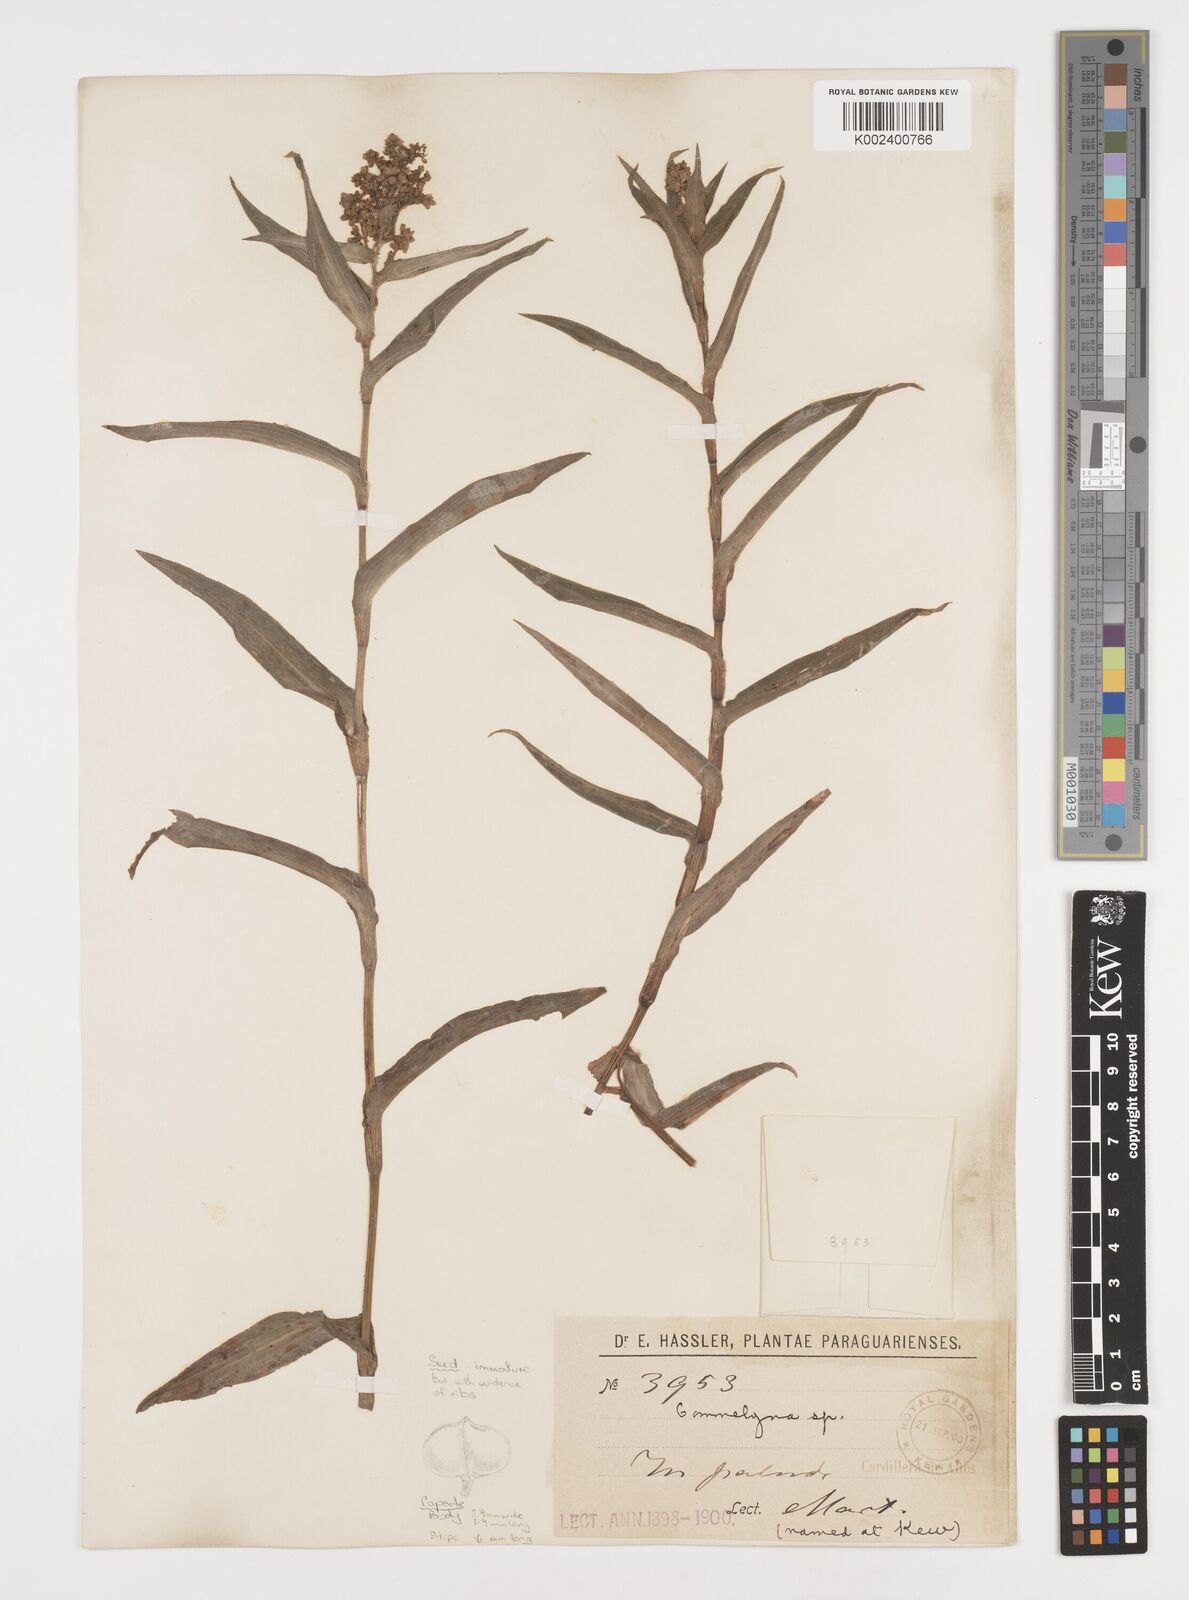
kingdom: Plantae
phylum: Tracheophyta
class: Liliopsida
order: Commelinales
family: Commelinaceae
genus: Floscopa
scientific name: Floscopa glabrata
